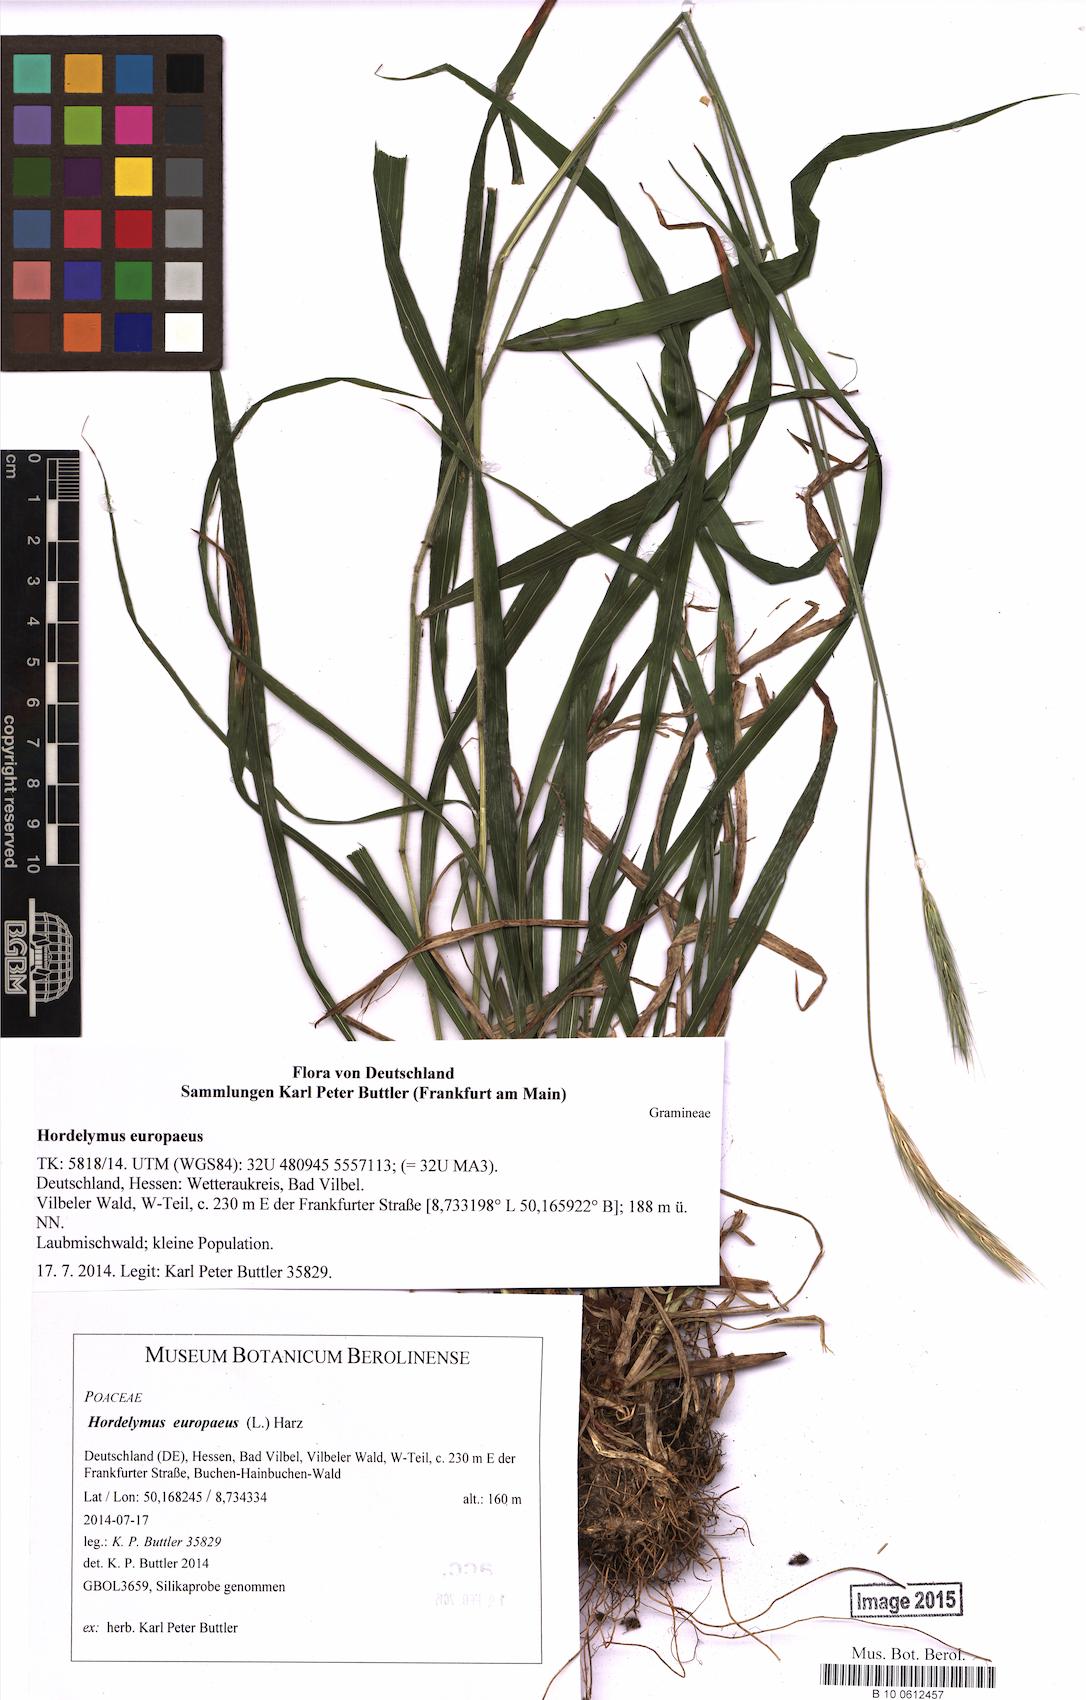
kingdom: Plantae
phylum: Tracheophyta
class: Liliopsida
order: Poales
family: Poaceae
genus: Hordelymus
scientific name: Hordelymus europaeus
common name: Wood-barley
